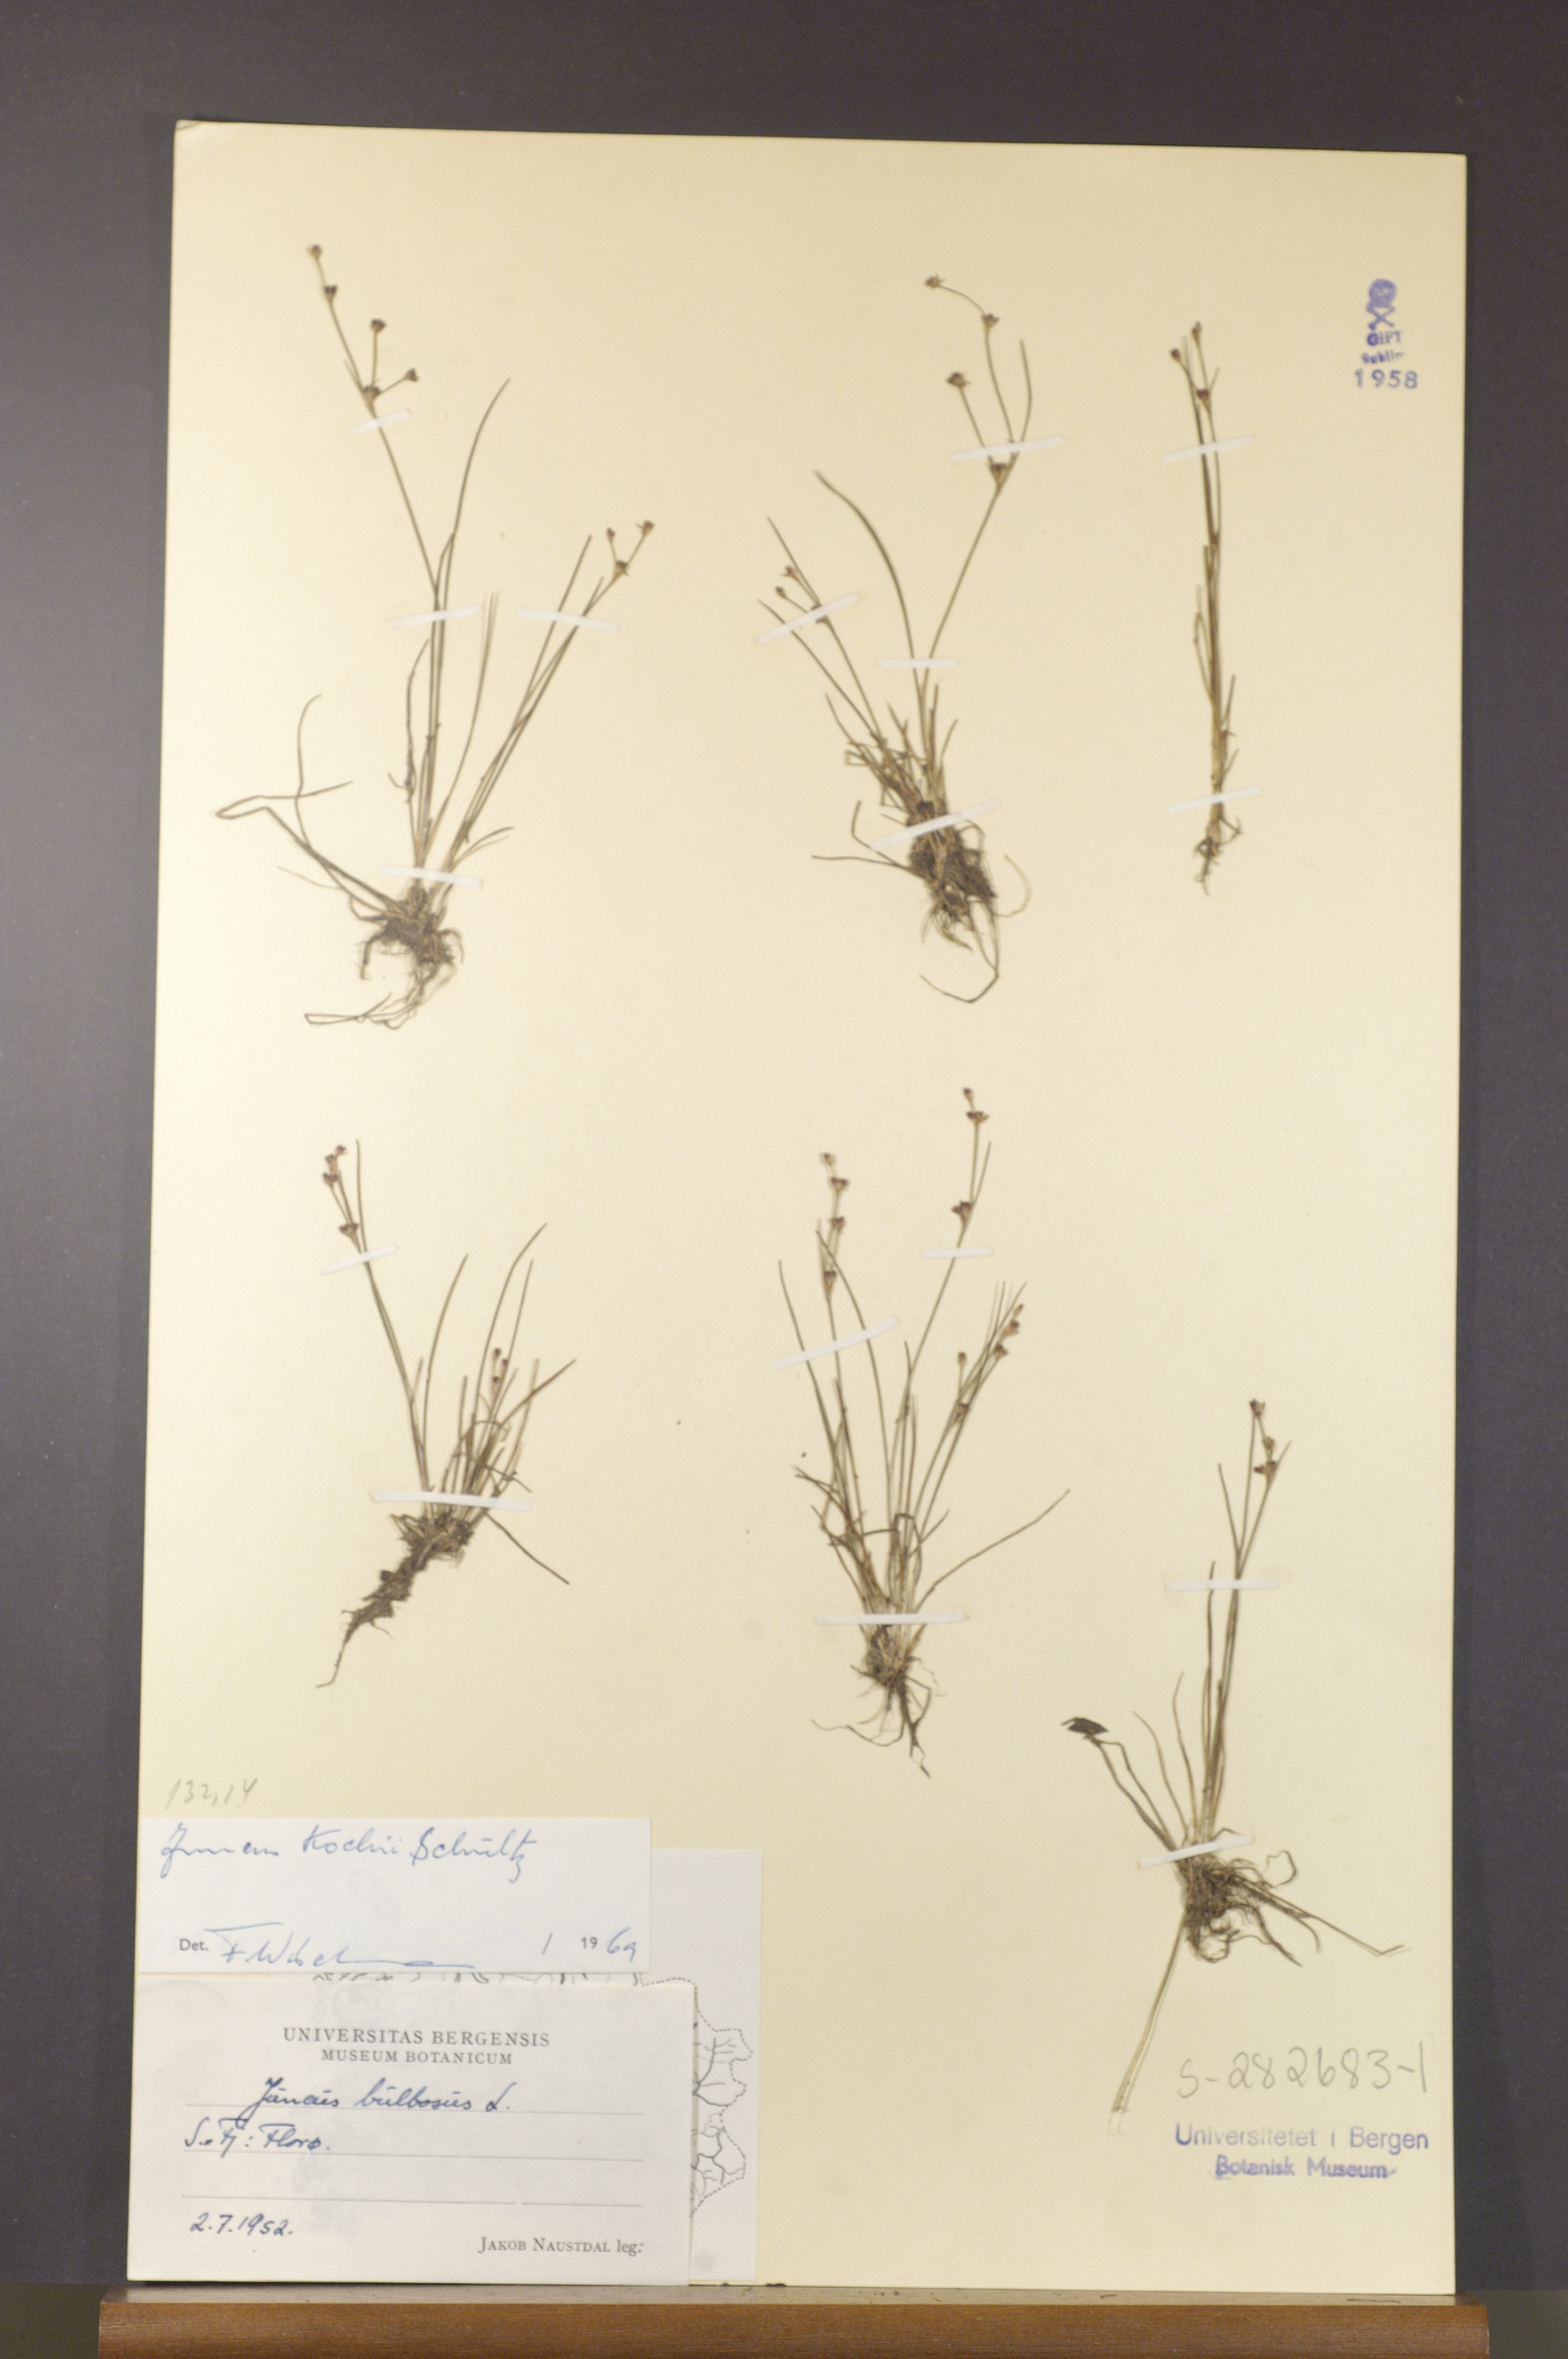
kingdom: Plantae
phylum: Tracheophyta
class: Liliopsida
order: Poales
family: Juncaceae
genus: Juncus
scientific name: Juncus bulbosus
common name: Bulbous rush
